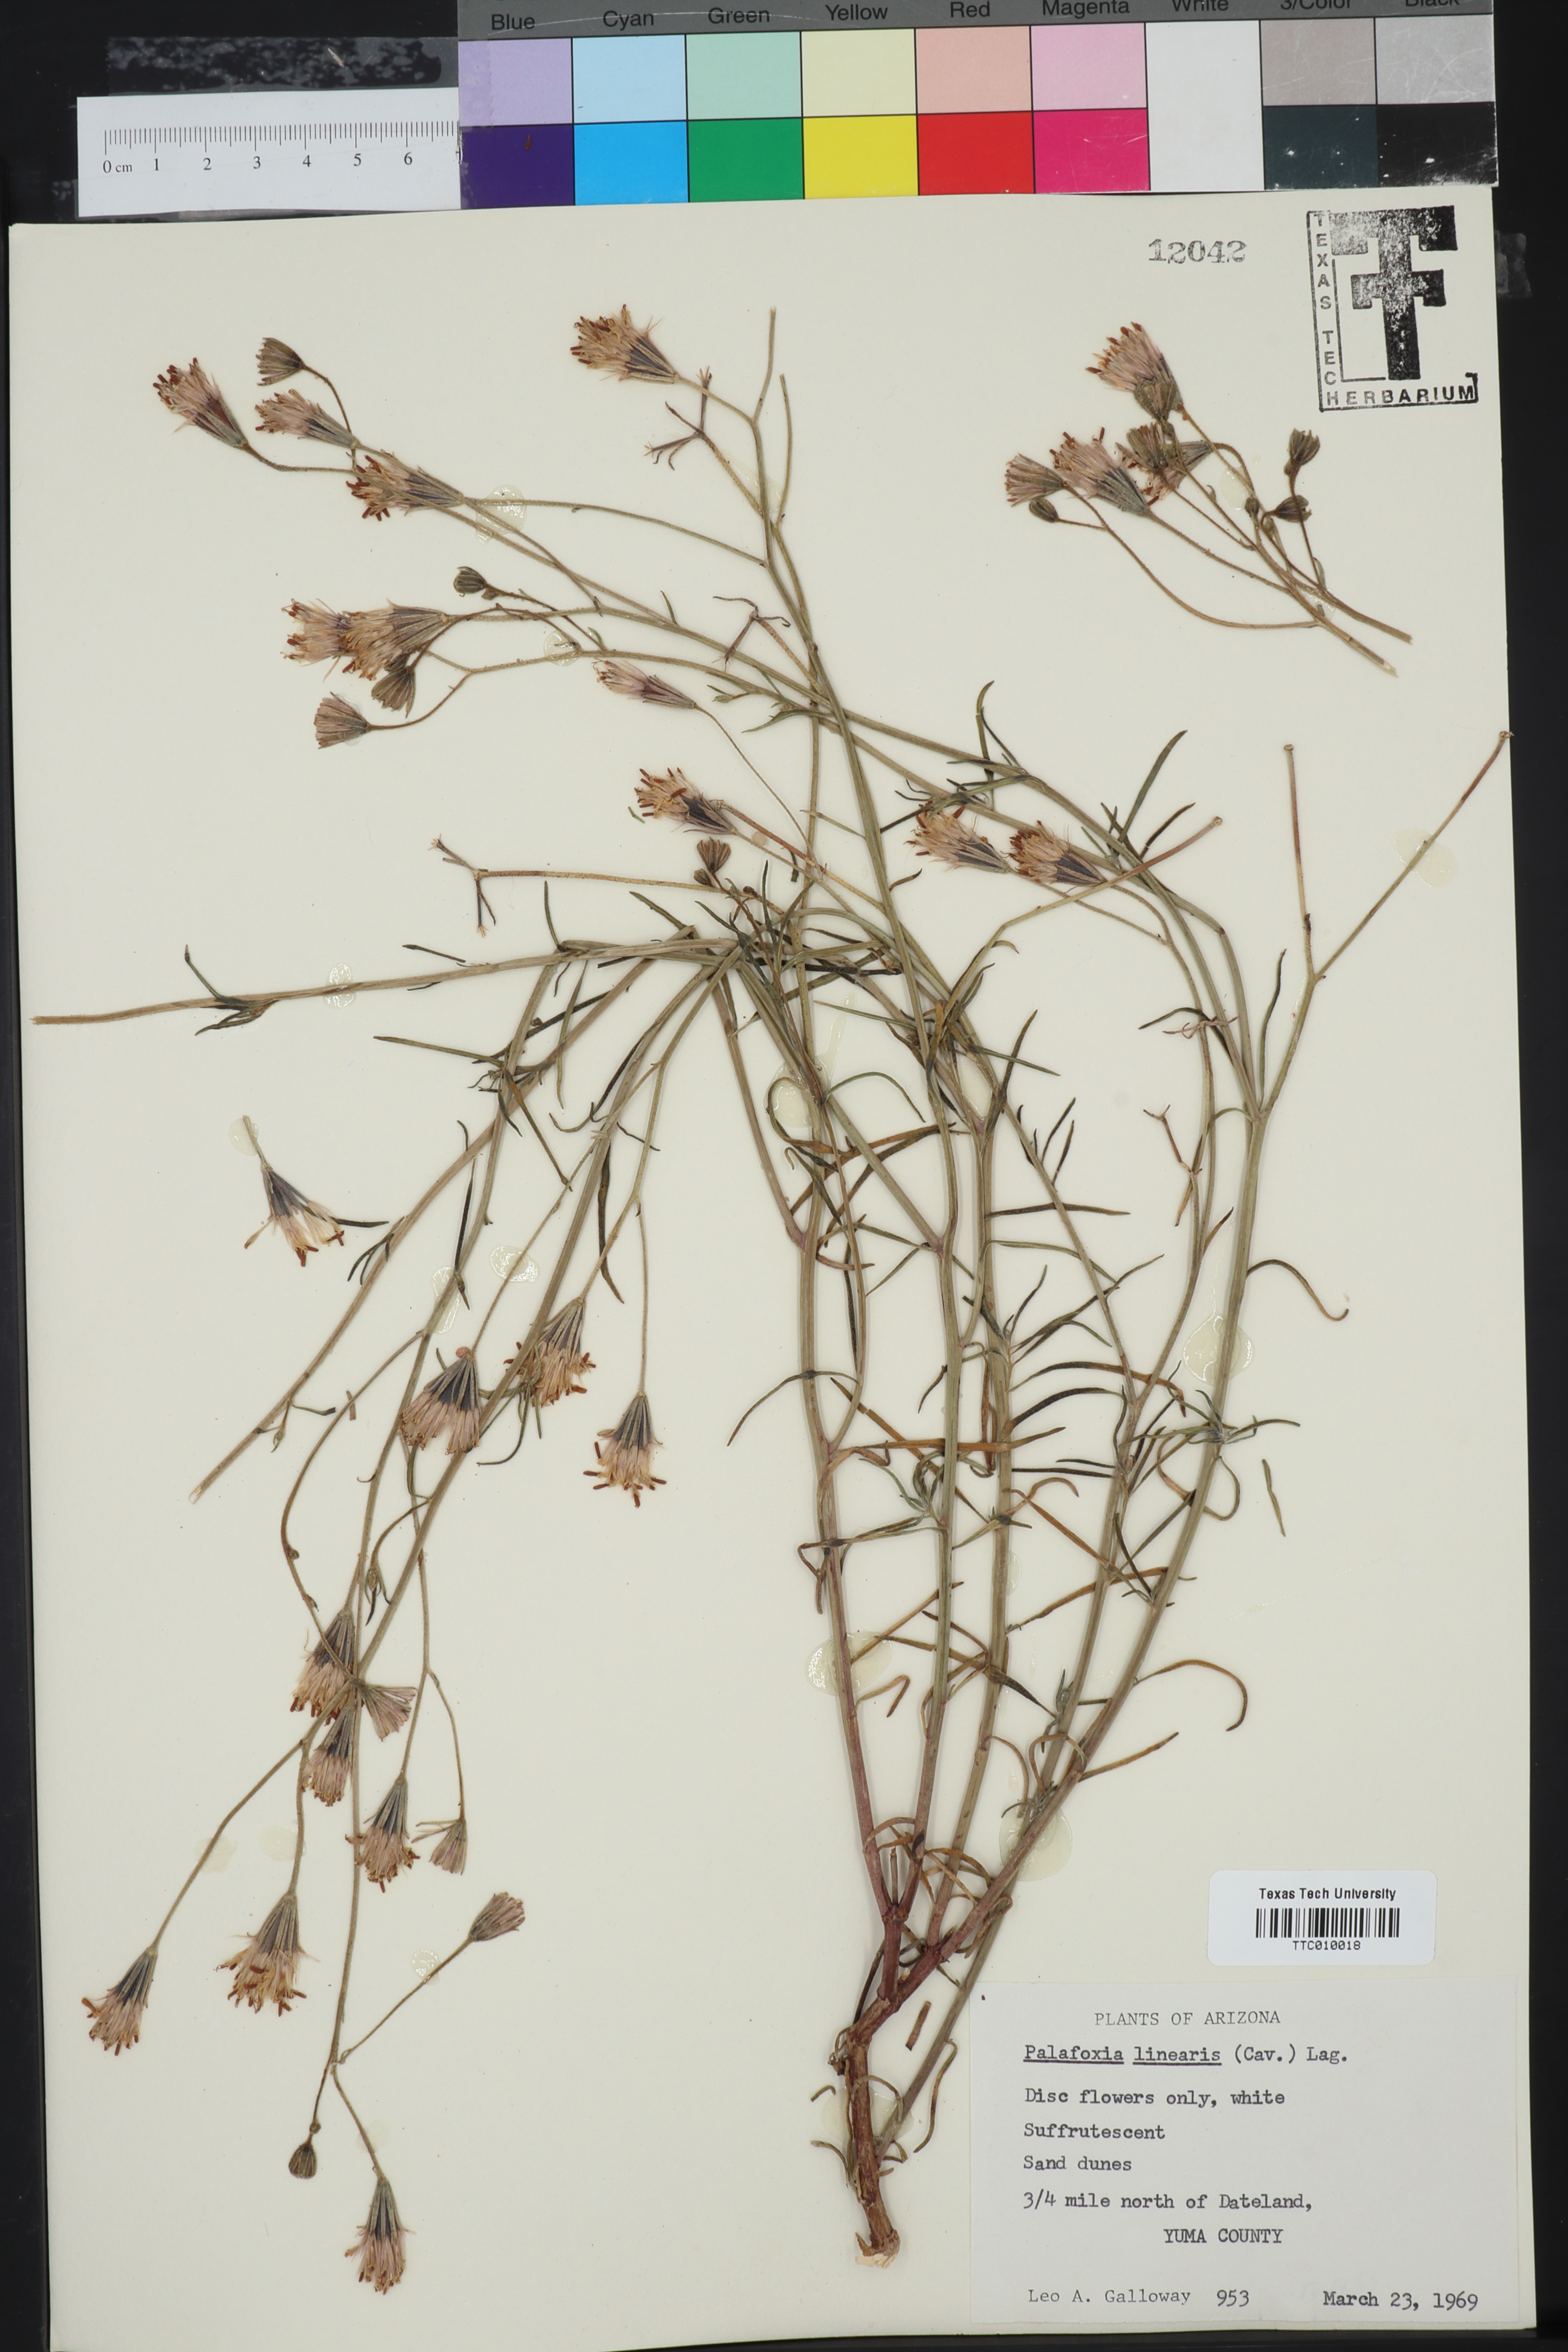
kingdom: Plantae
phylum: Tracheophyta
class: Magnoliopsida
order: Asterales
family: Asteraceae
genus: Palafoxia
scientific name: Palafoxia linearis
